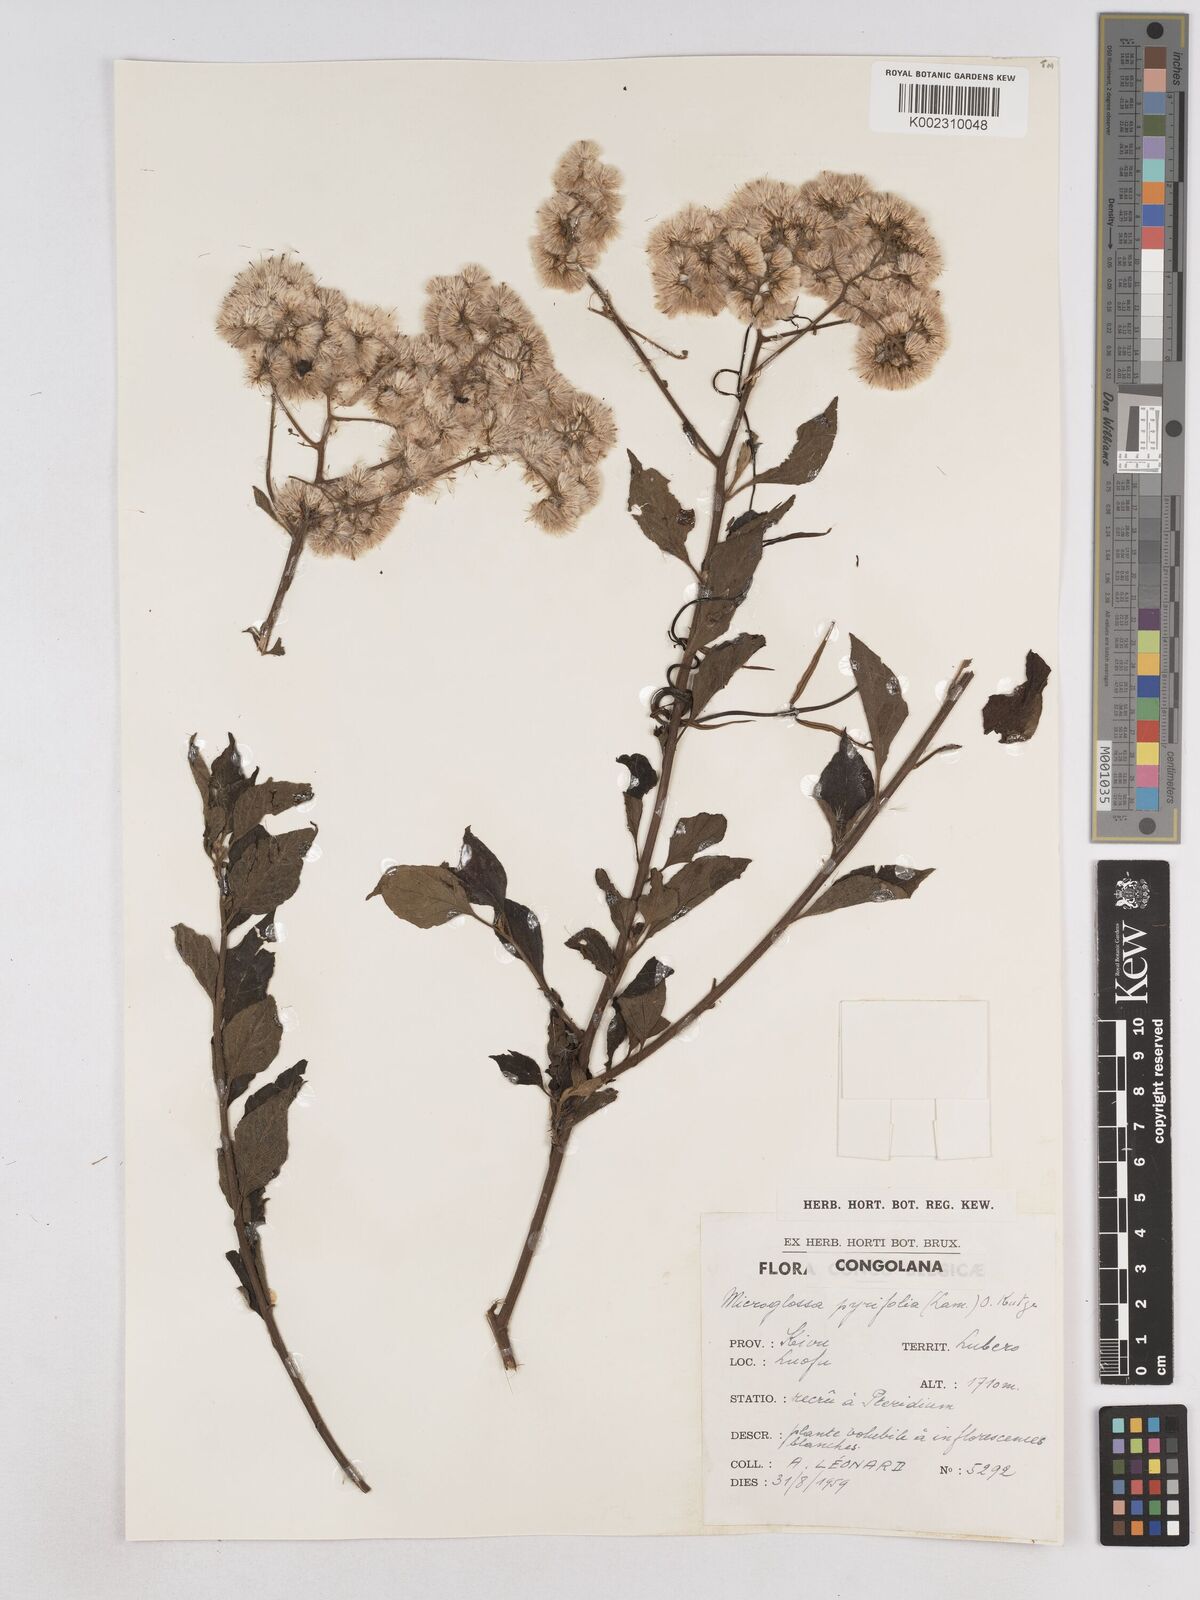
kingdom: Plantae
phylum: Tracheophyta
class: Magnoliopsida
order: Asterales
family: Asteraceae
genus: Microglossa
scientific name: Microglossa pyrifolia
